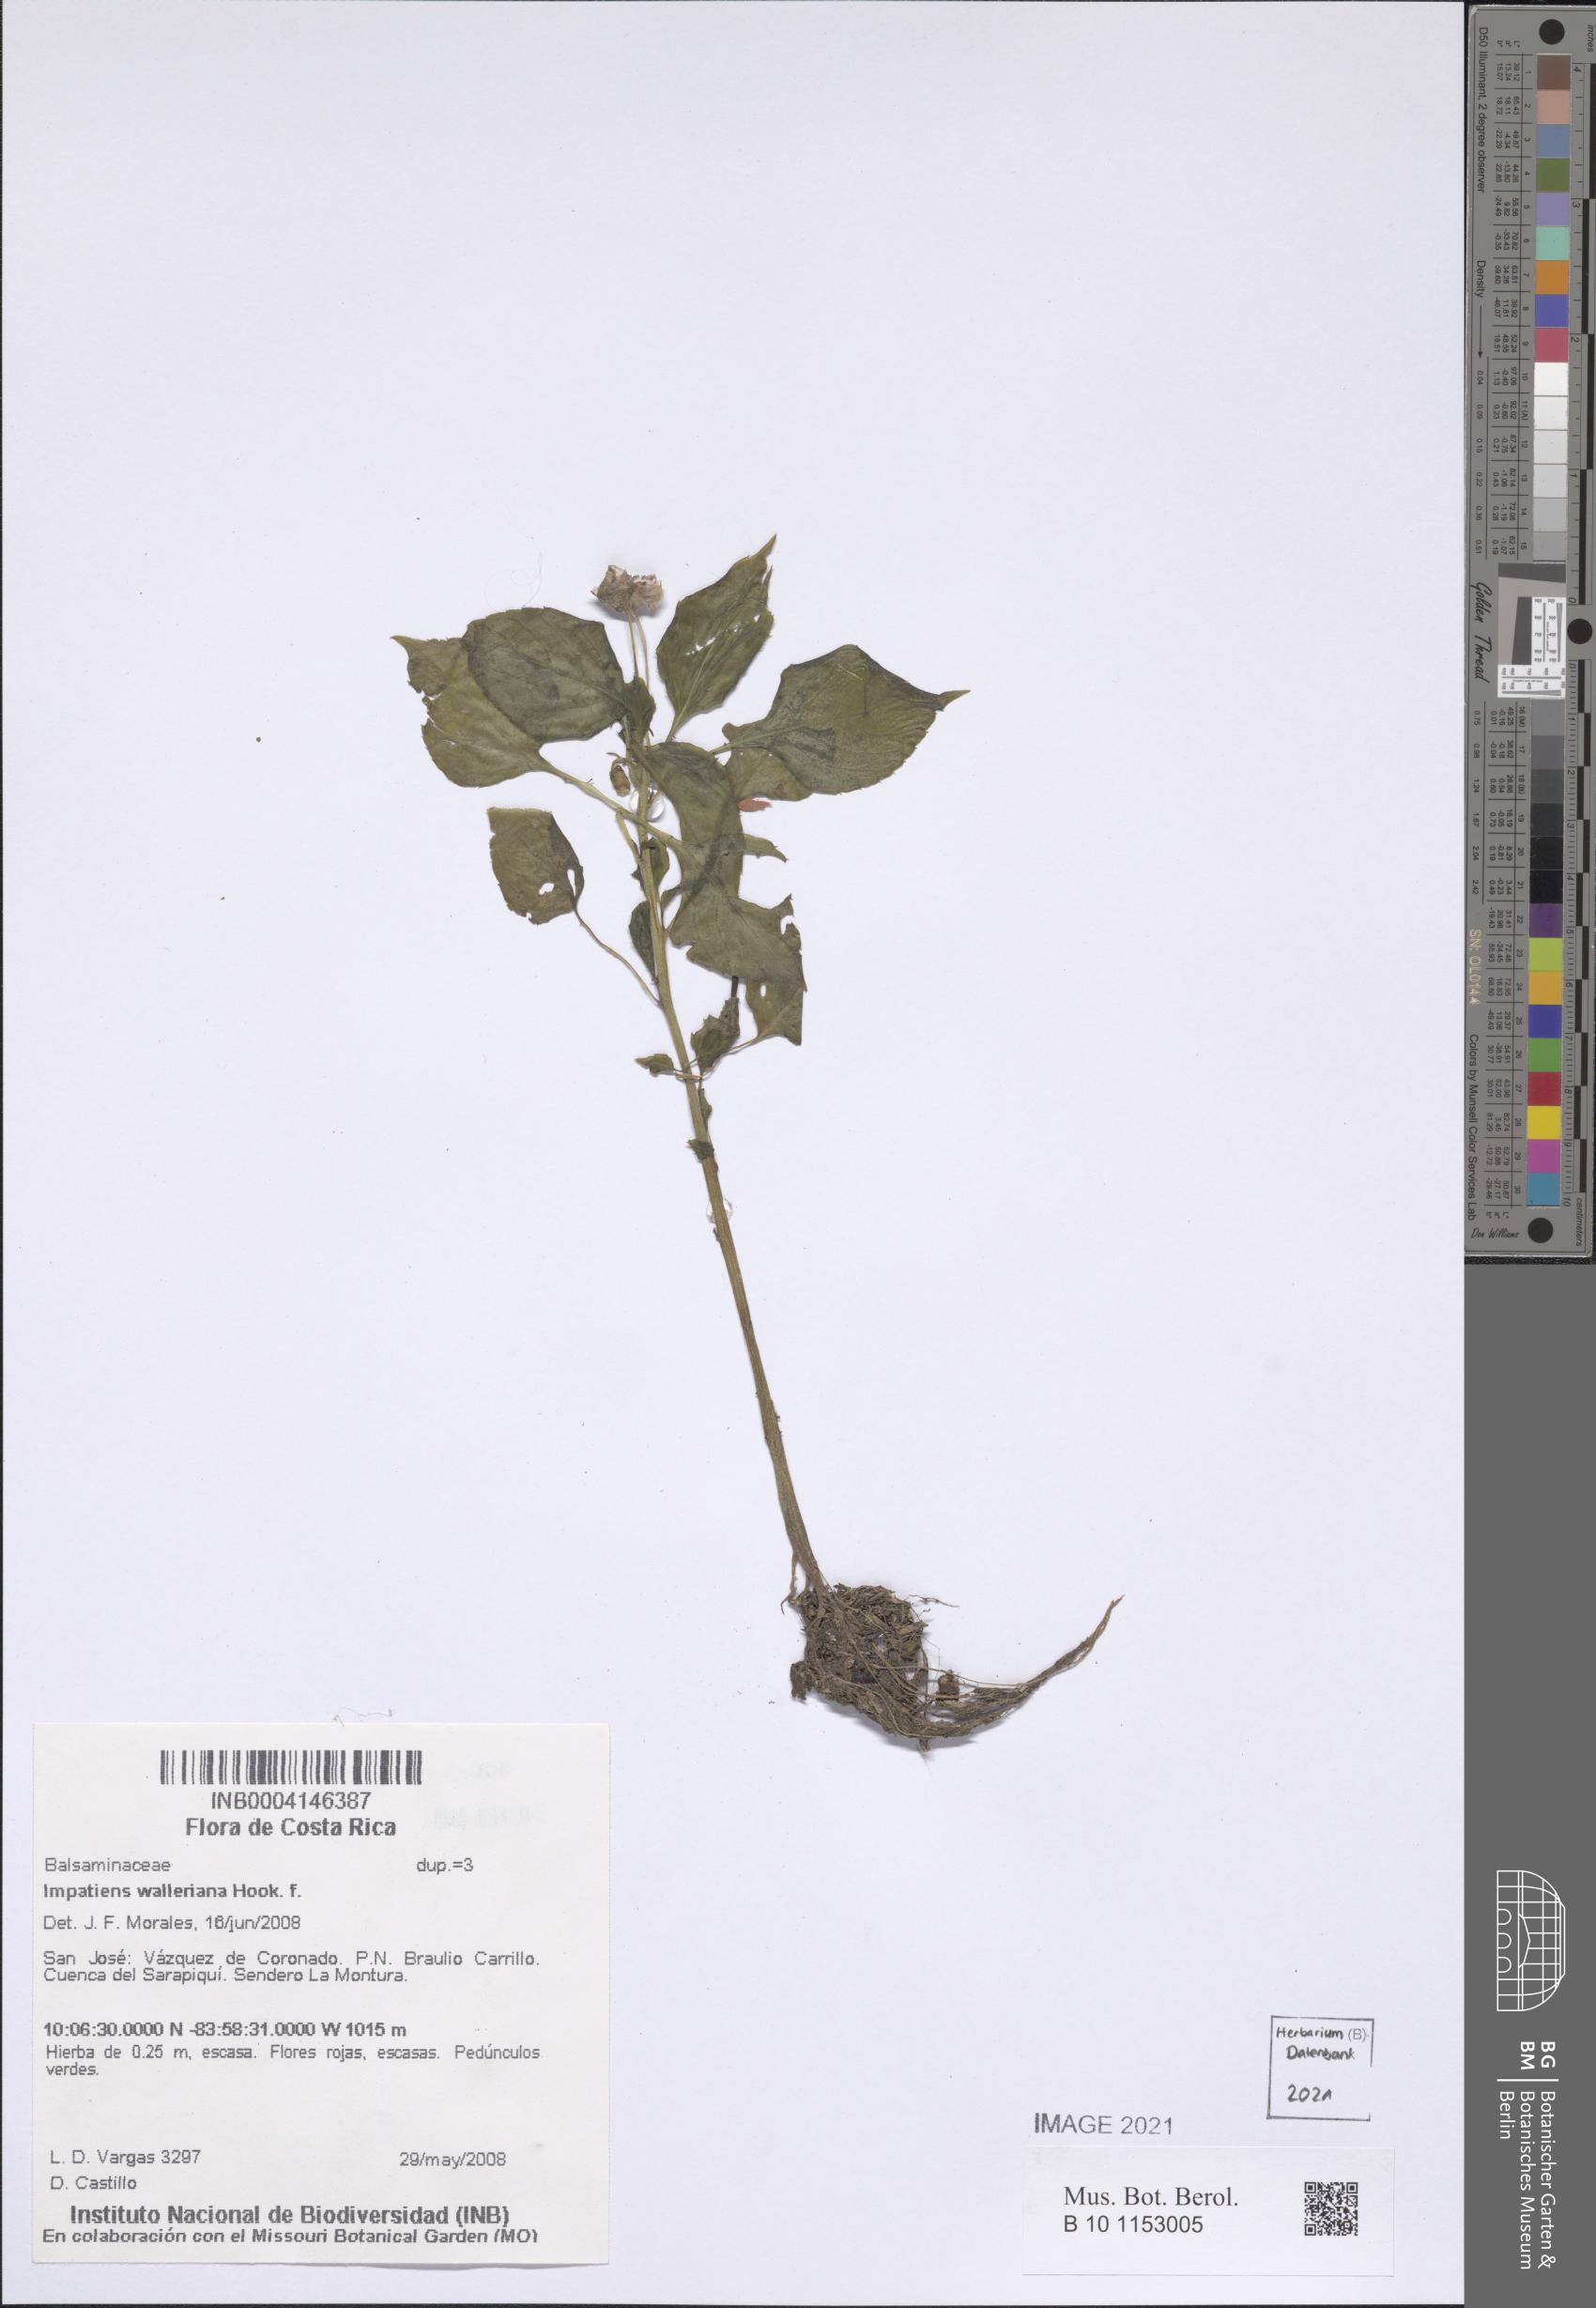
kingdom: Plantae
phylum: Tracheophyta
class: Magnoliopsida
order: Ericales
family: Balsaminaceae
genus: Impatiens
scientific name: Impatiens walleriana
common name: Buzzy lizzy
